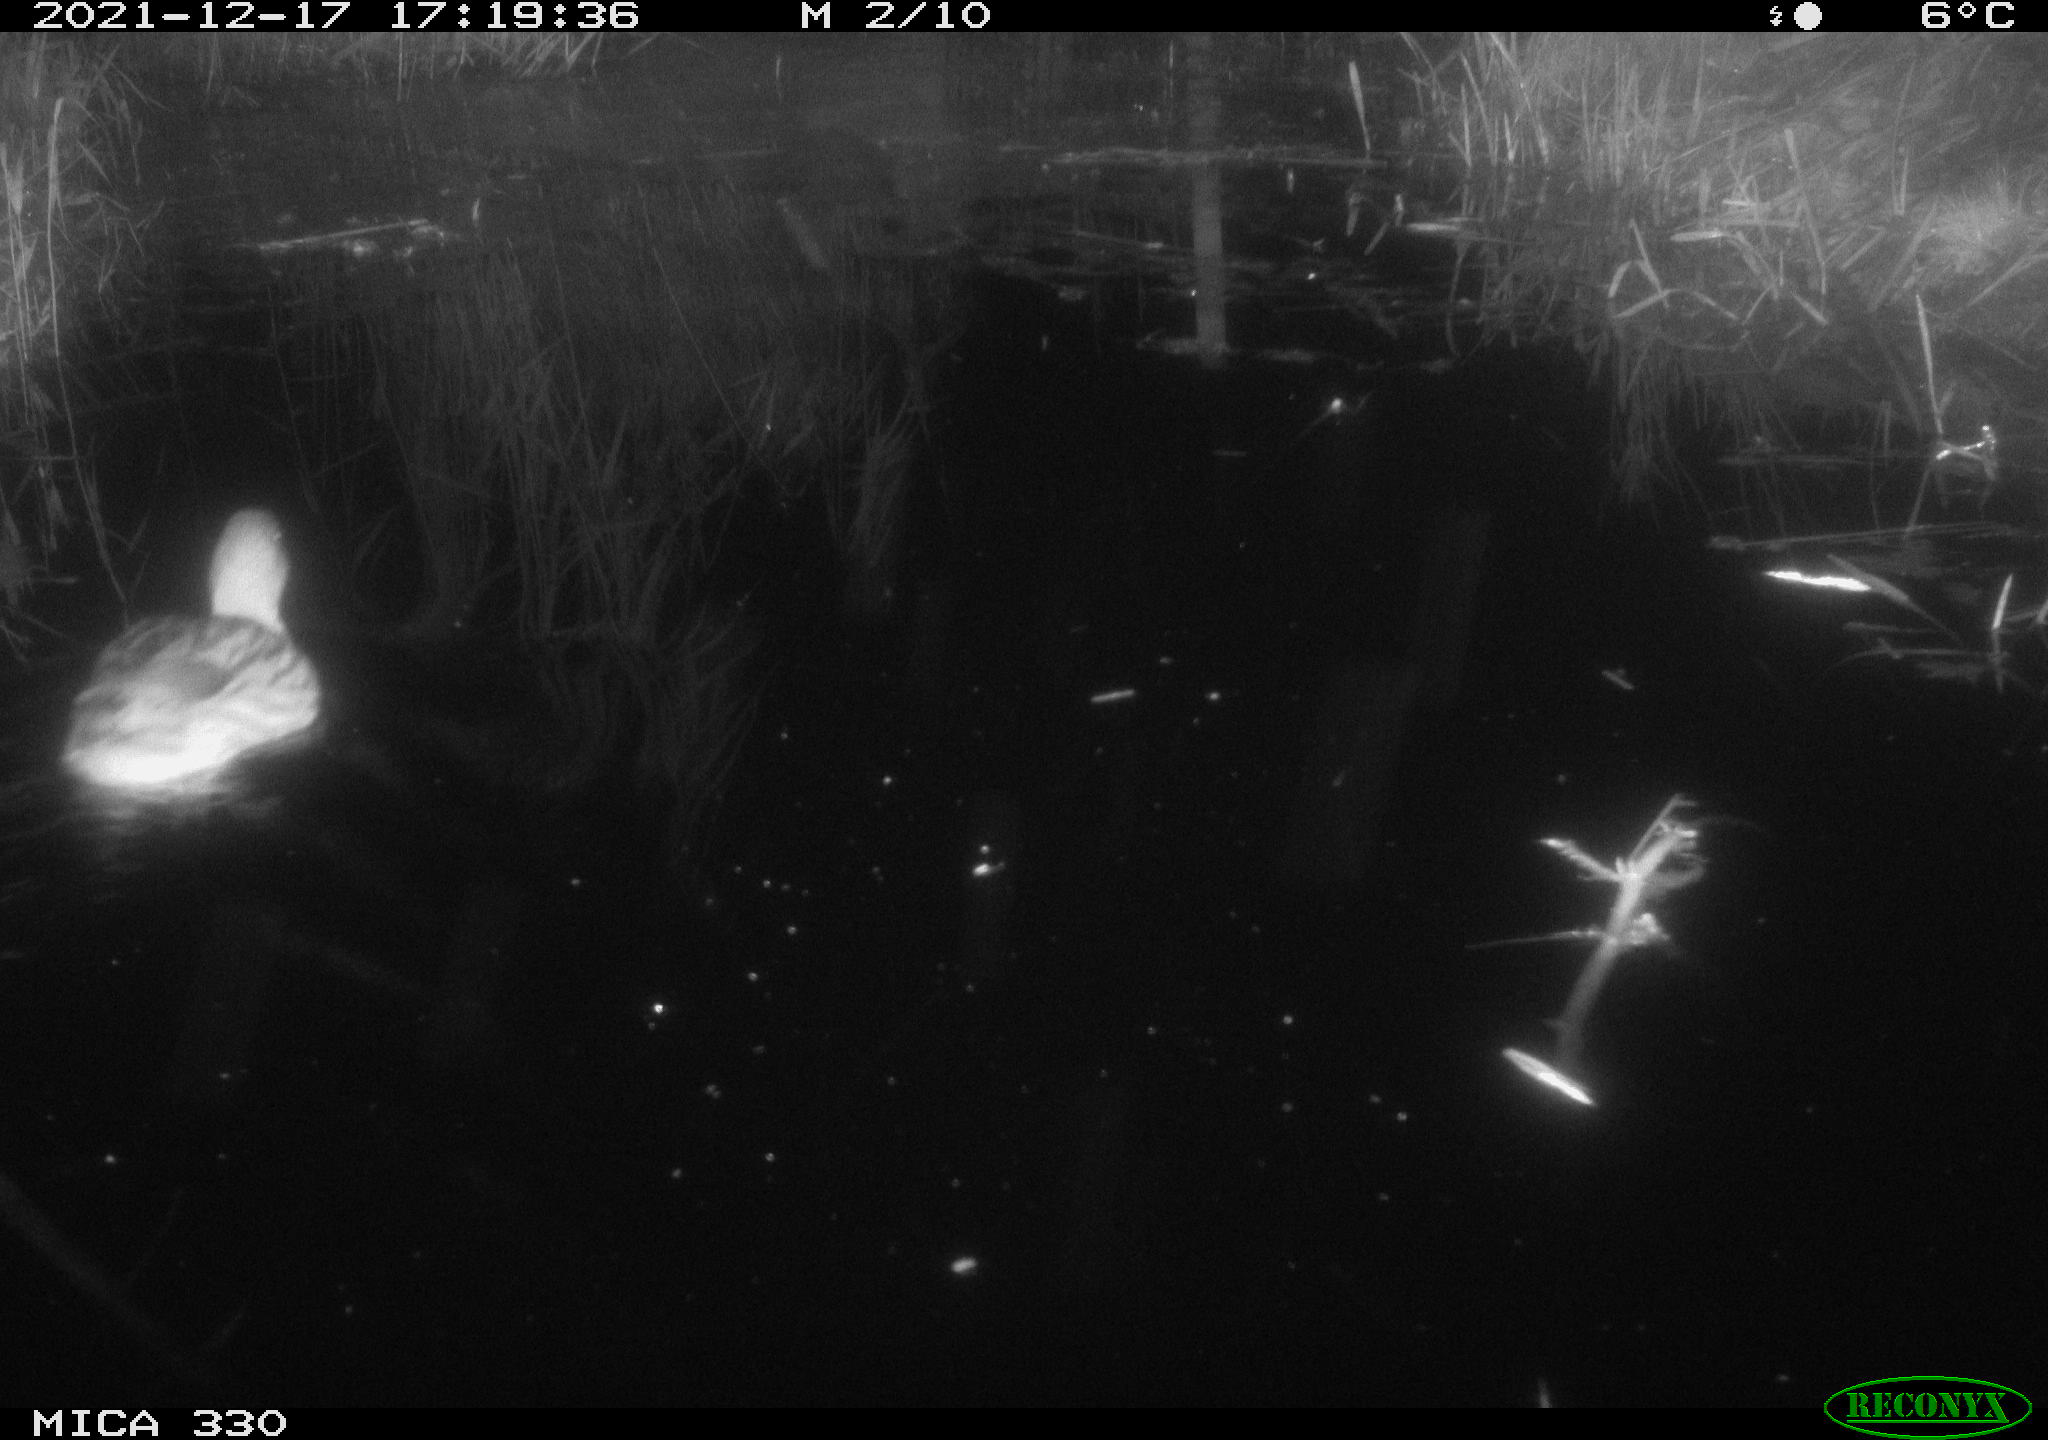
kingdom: Animalia
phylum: Chordata
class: Aves
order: Anseriformes
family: Anatidae
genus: Anas
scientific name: Anas platyrhynchos
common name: Mallard
